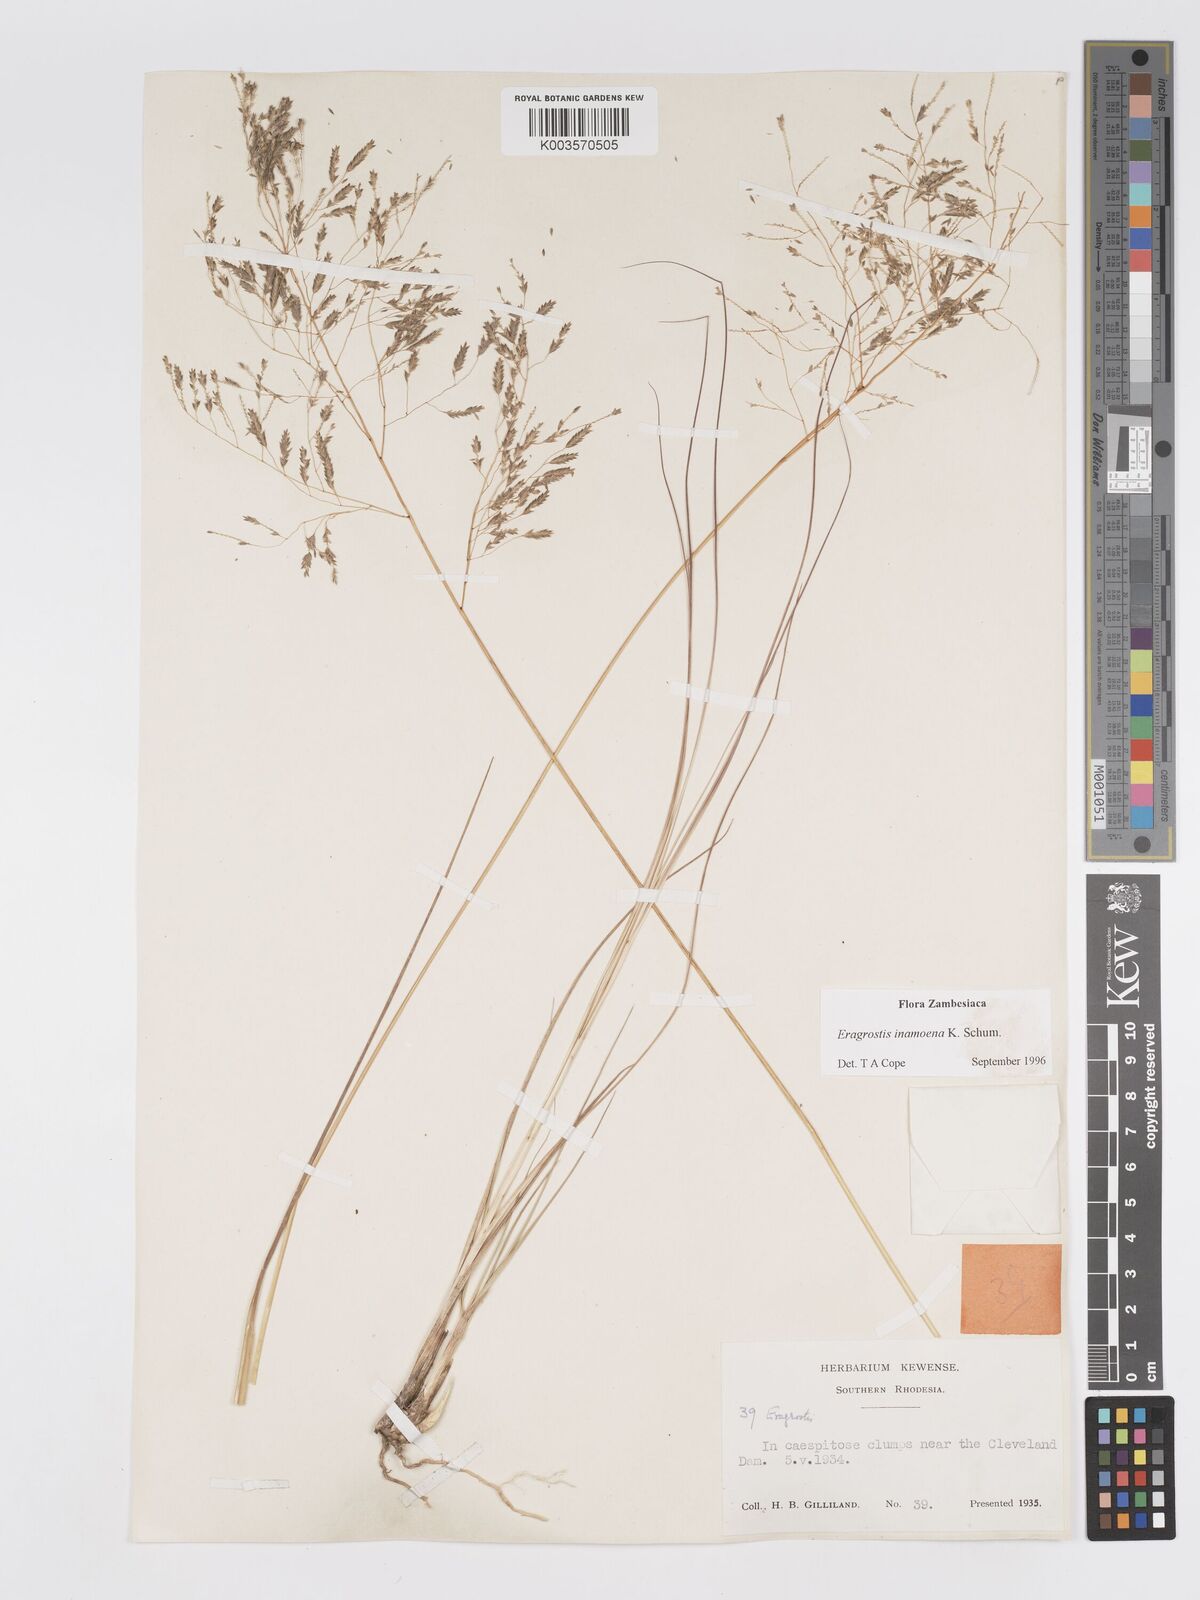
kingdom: Plantae
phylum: Tracheophyta
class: Liliopsida
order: Poales
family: Poaceae
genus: Eragrostis
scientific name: Eragrostis inamoena
